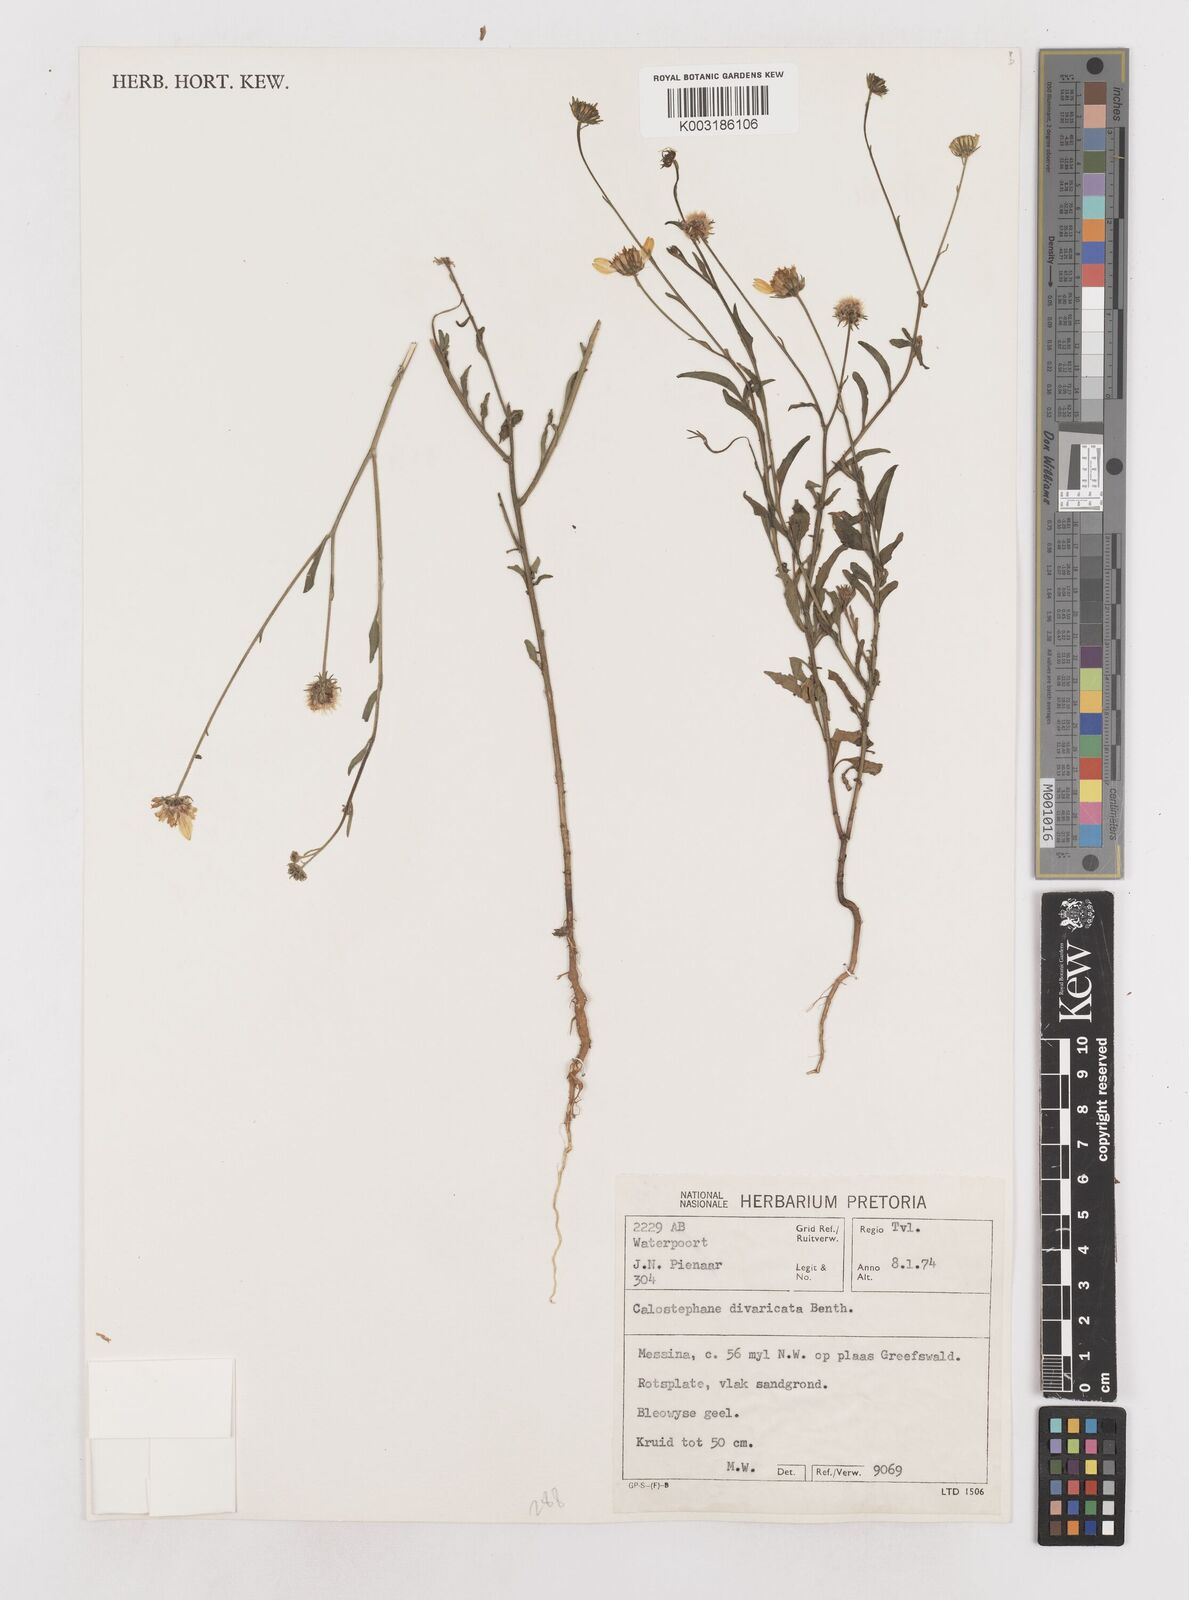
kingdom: Plantae
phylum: Tracheophyta
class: Magnoliopsida
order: Asterales
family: Asteraceae
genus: Calostephane
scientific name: Calostephane divaricata
